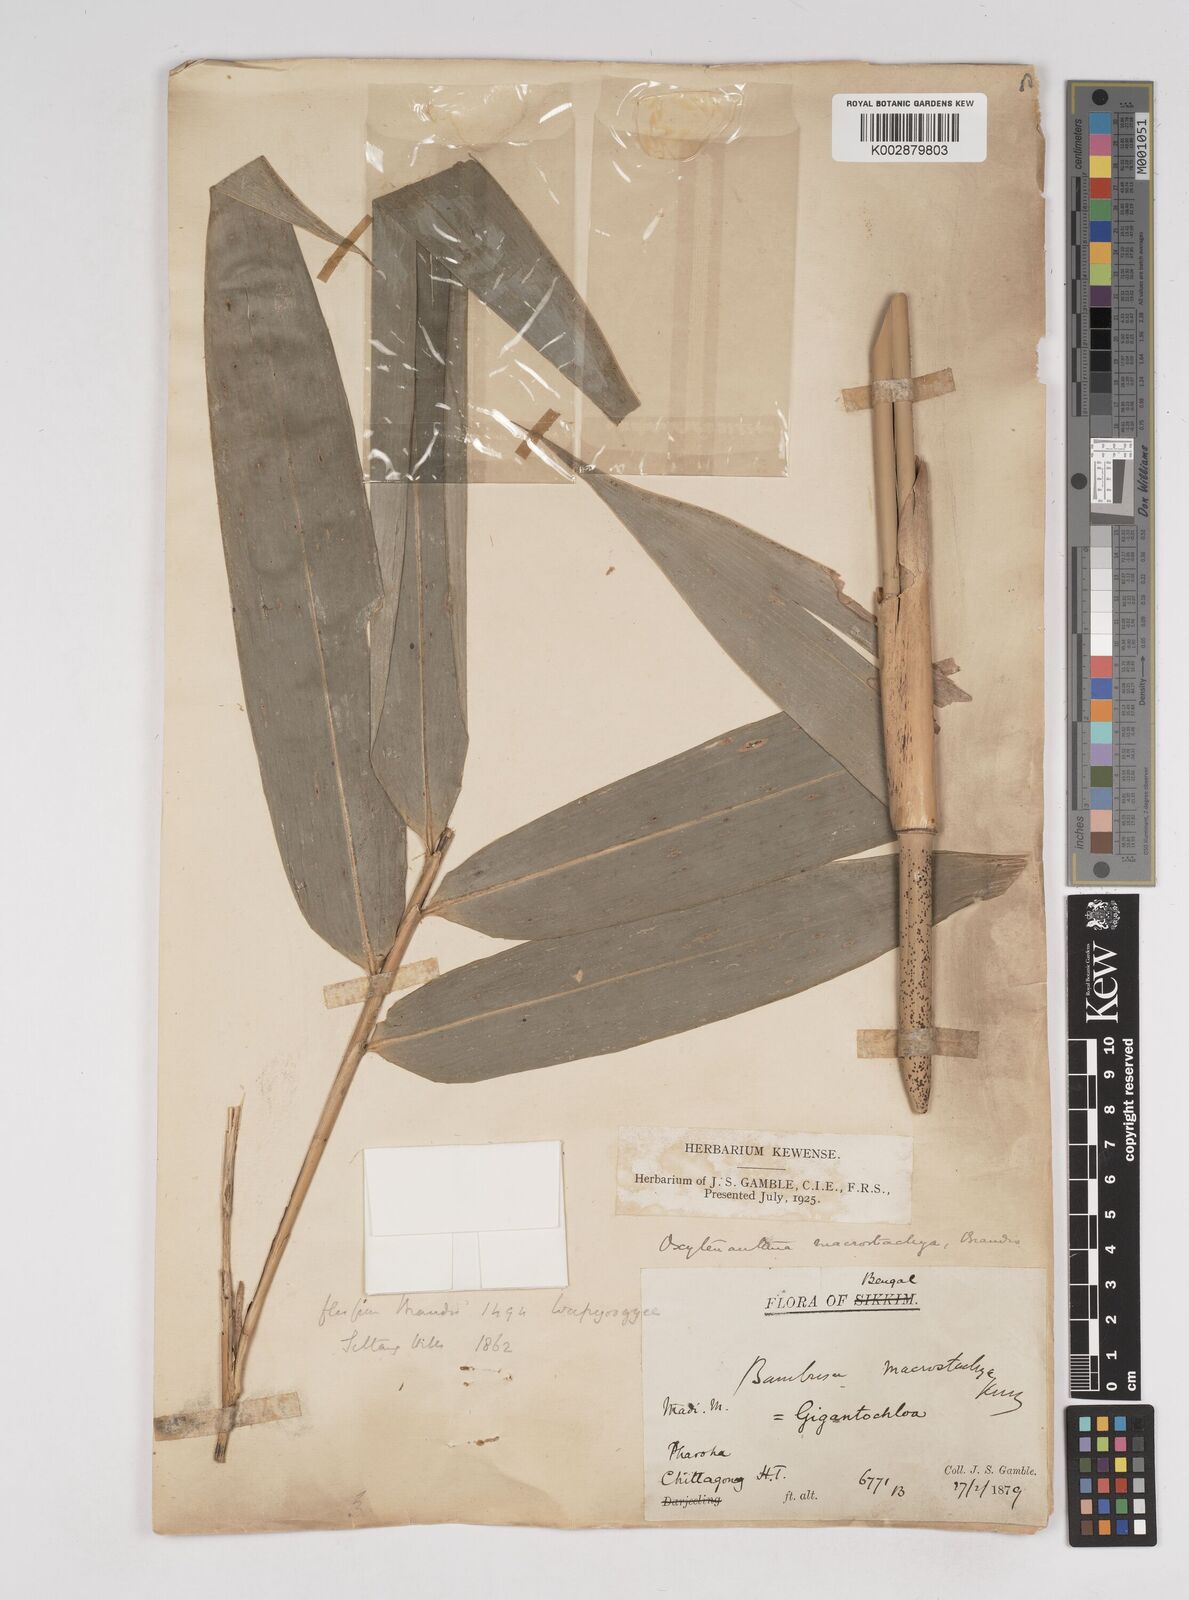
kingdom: Plantae
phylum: Tracheophyta
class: Liliopsida
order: Poales
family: Poaceae
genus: Gigantochloa
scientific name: Gigantochloa macrostachya
